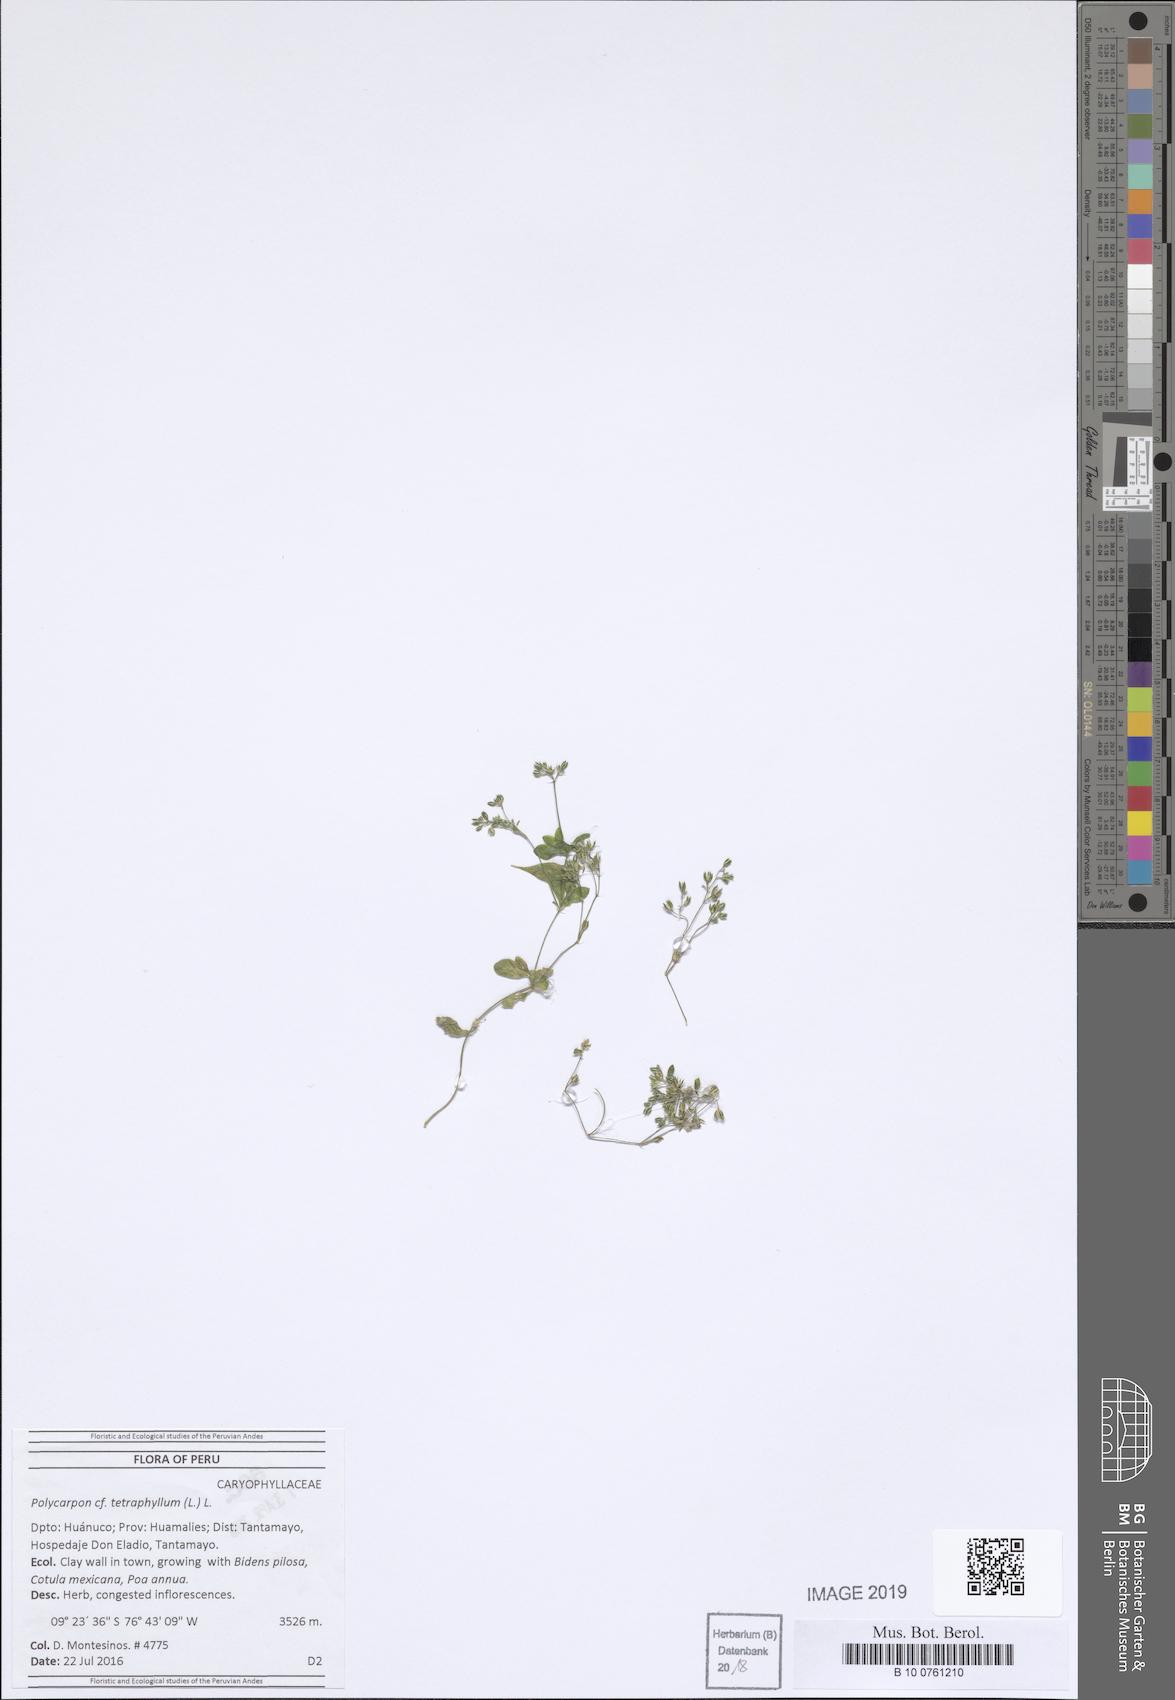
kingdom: Plantae
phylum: Tracheophyta
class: Magnoliopsida
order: Caryophyllales
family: Caryophyllaceae
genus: Polycarpon
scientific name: Polycarpon tetraphyllum
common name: Four-leaved all-seed
